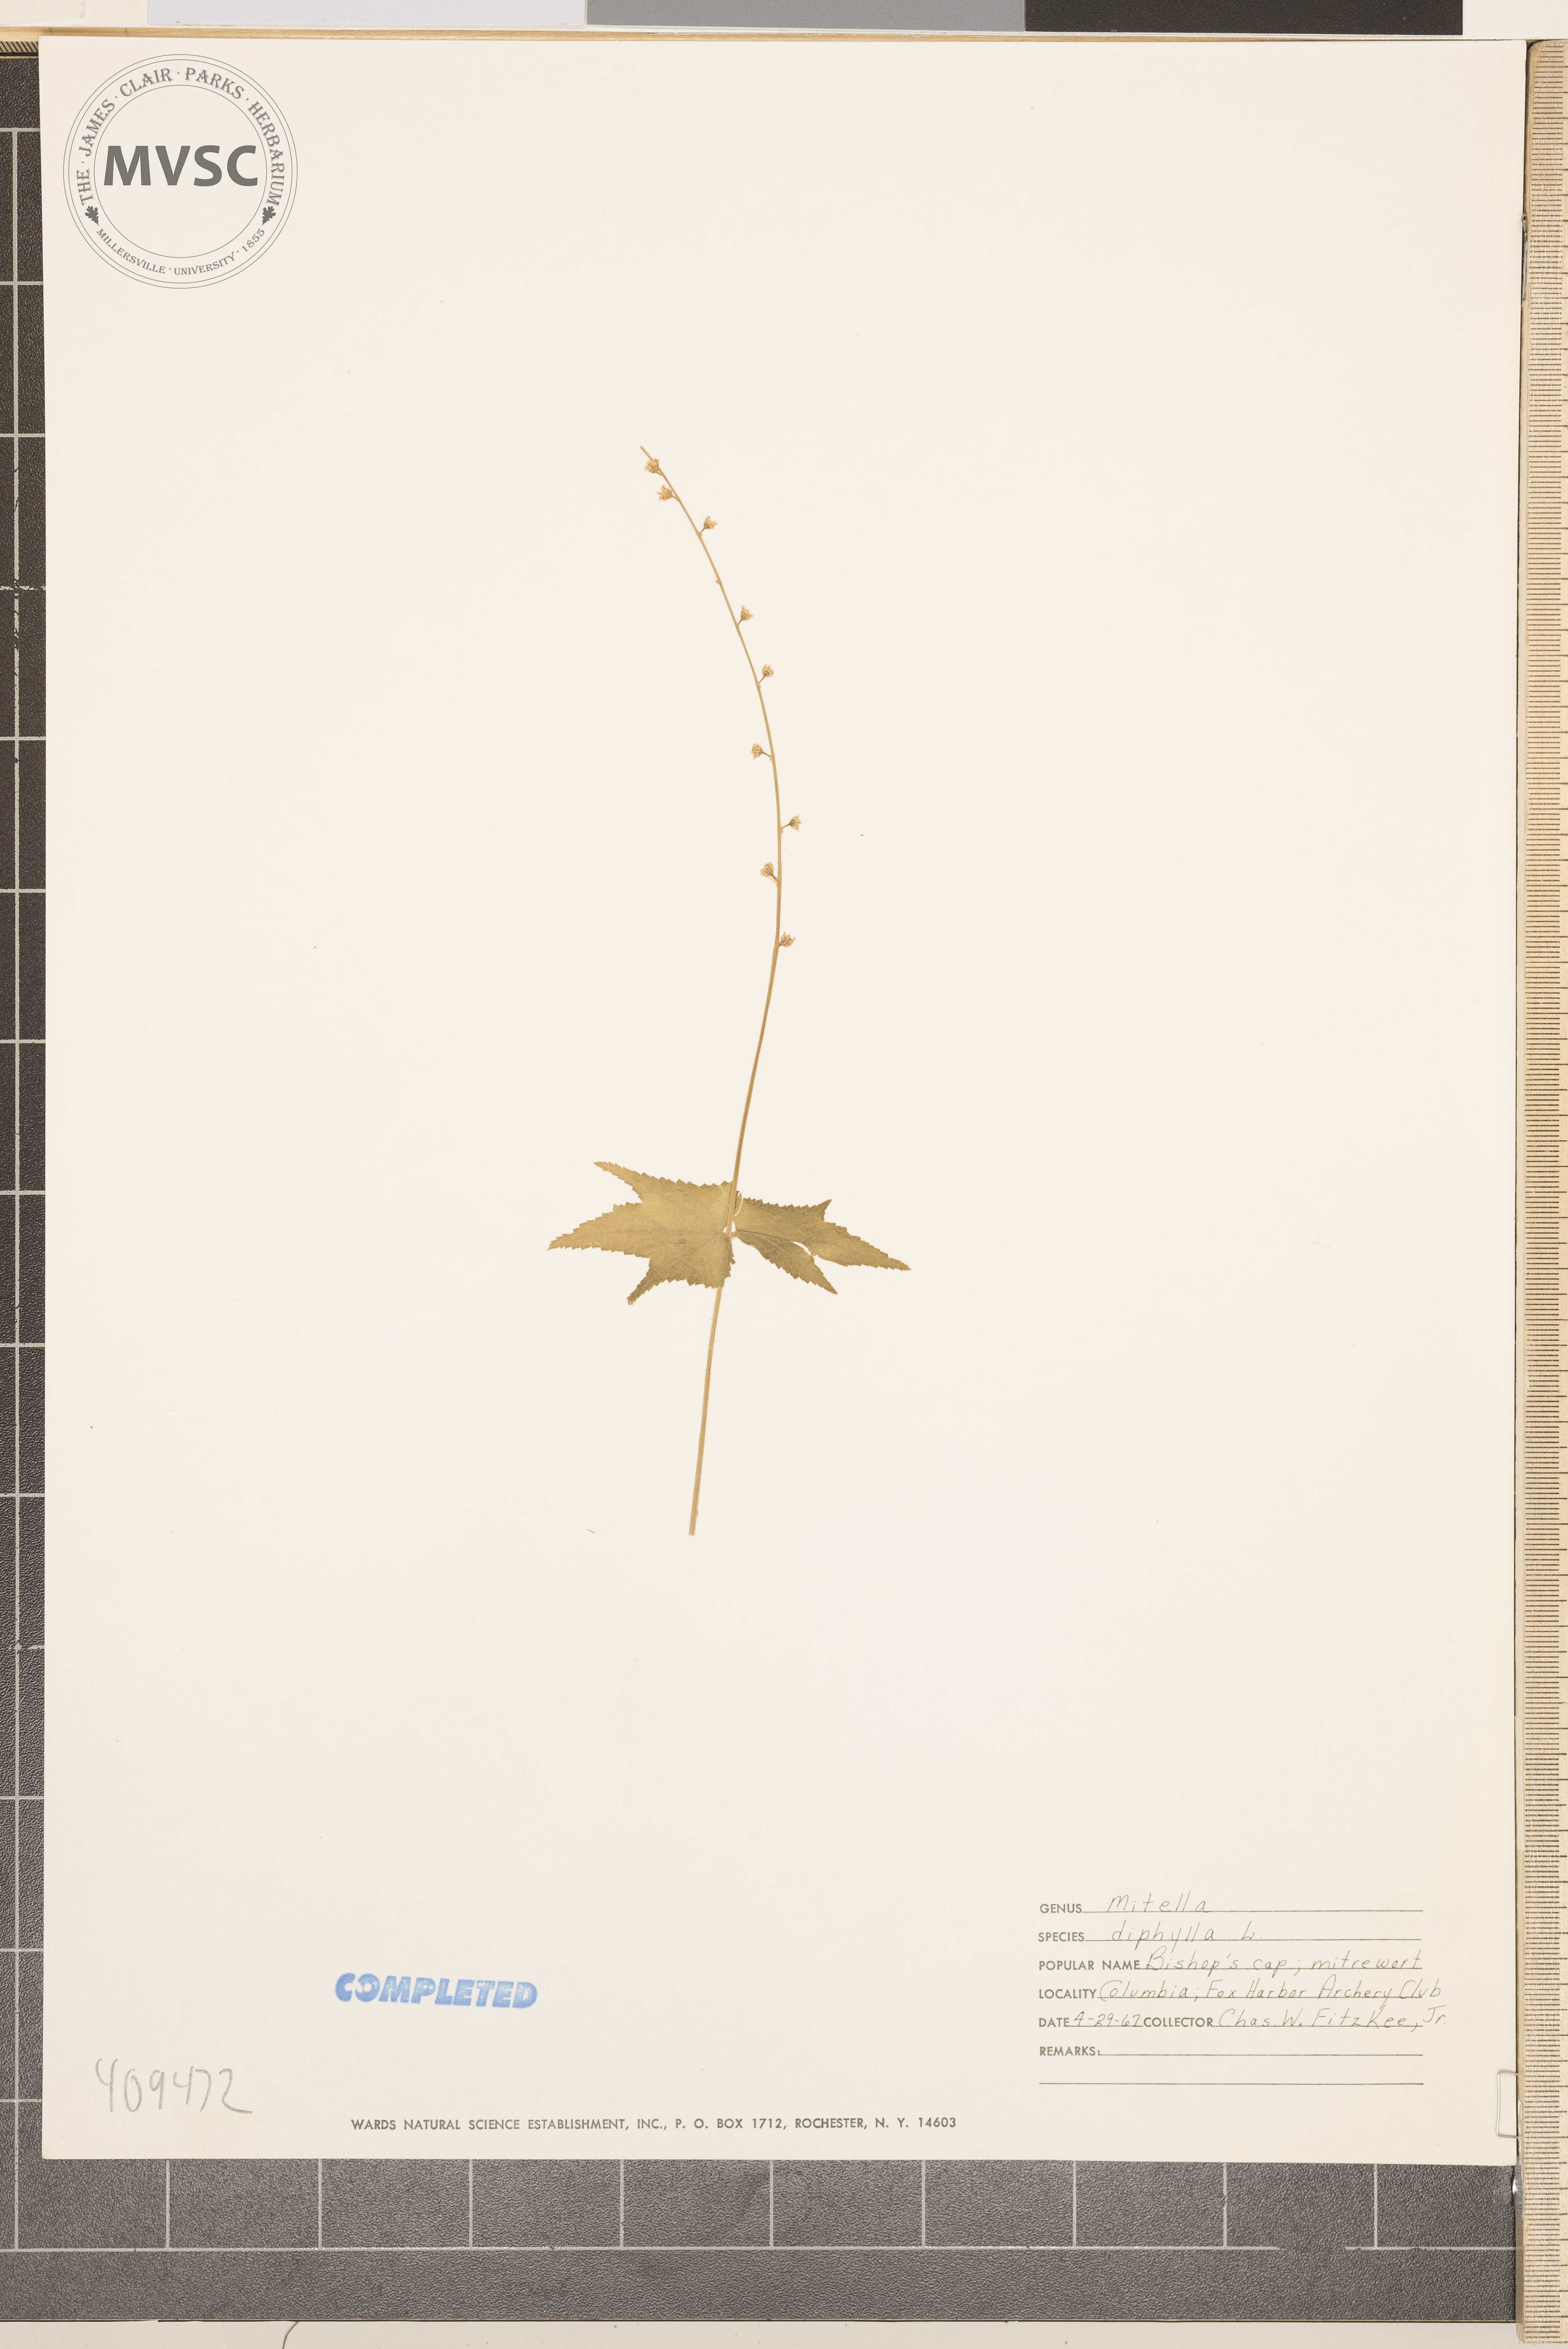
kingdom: Plantae
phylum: Tracheophyta
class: Magnoliopsida
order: Saxifragales
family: Saxifragaceae
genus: Mitella
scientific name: Mitella diphylla
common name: Coolwort
